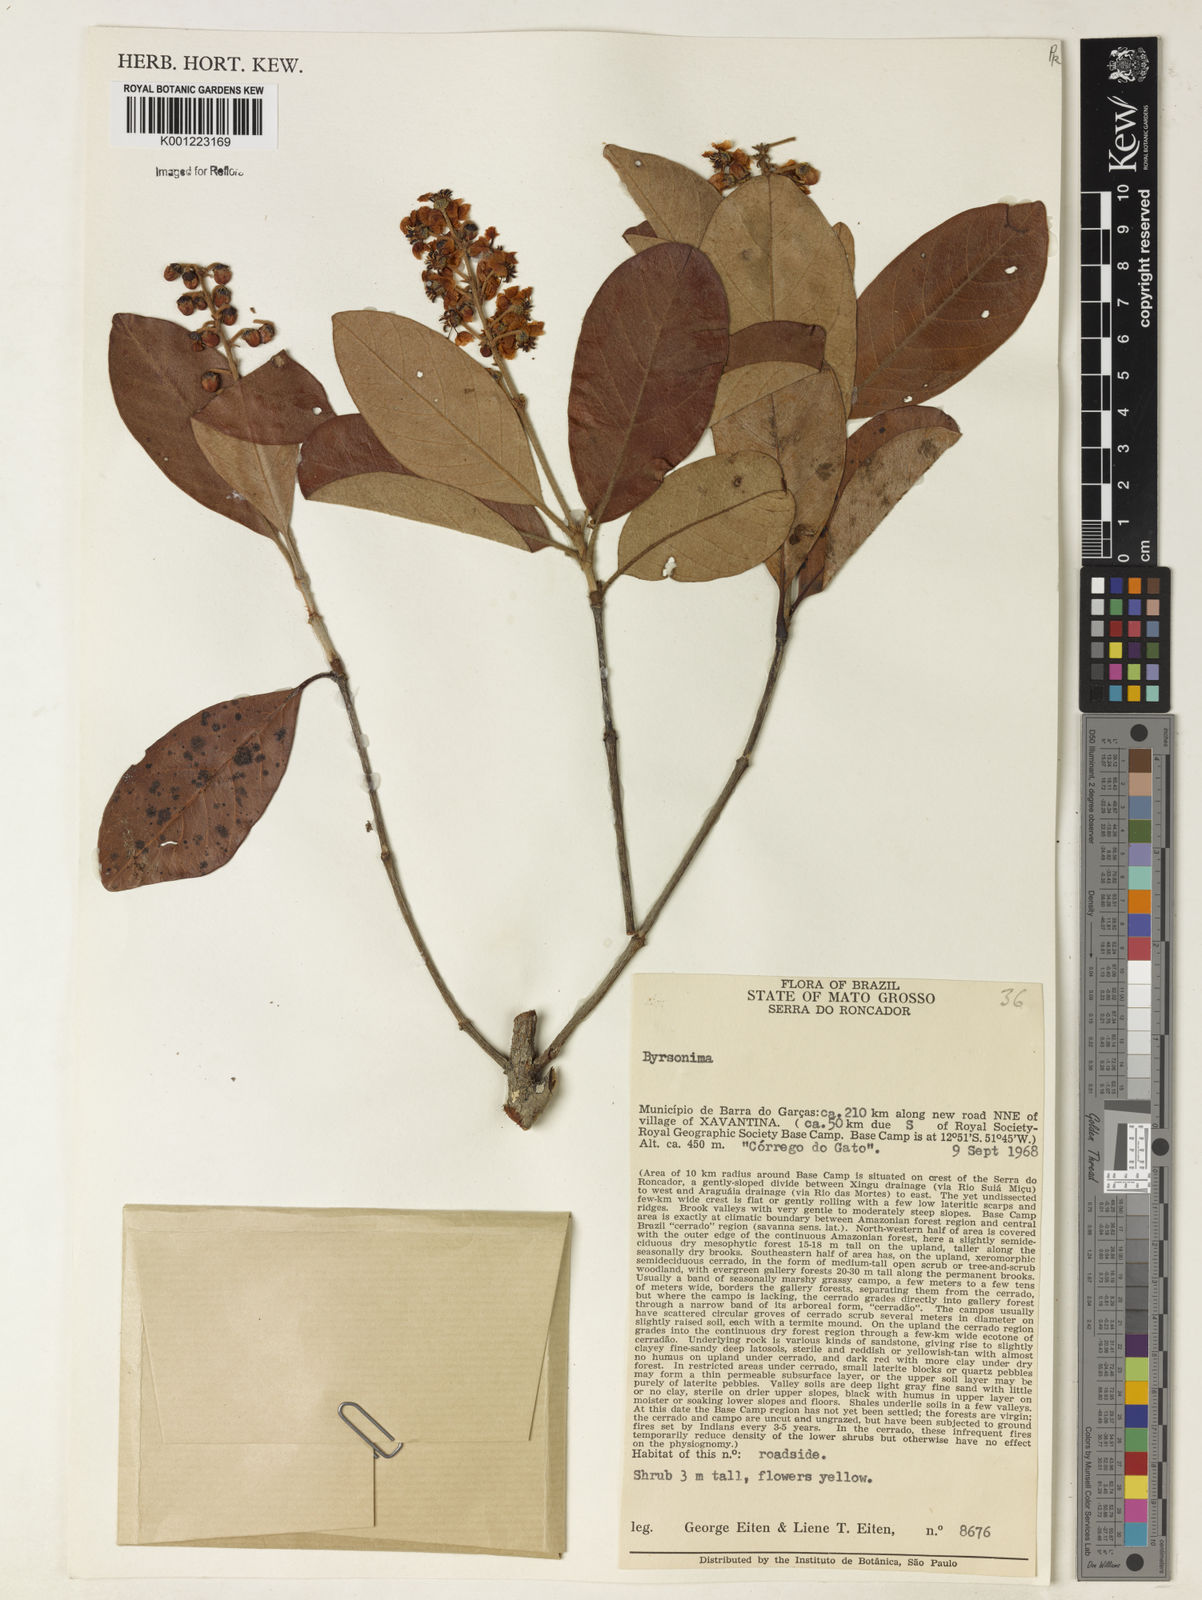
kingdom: Plantae
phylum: Tracheophyta
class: Magnoliopsida
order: Malpighiales
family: Malpighiaceae
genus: Byrsonima
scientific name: Byrsonima
